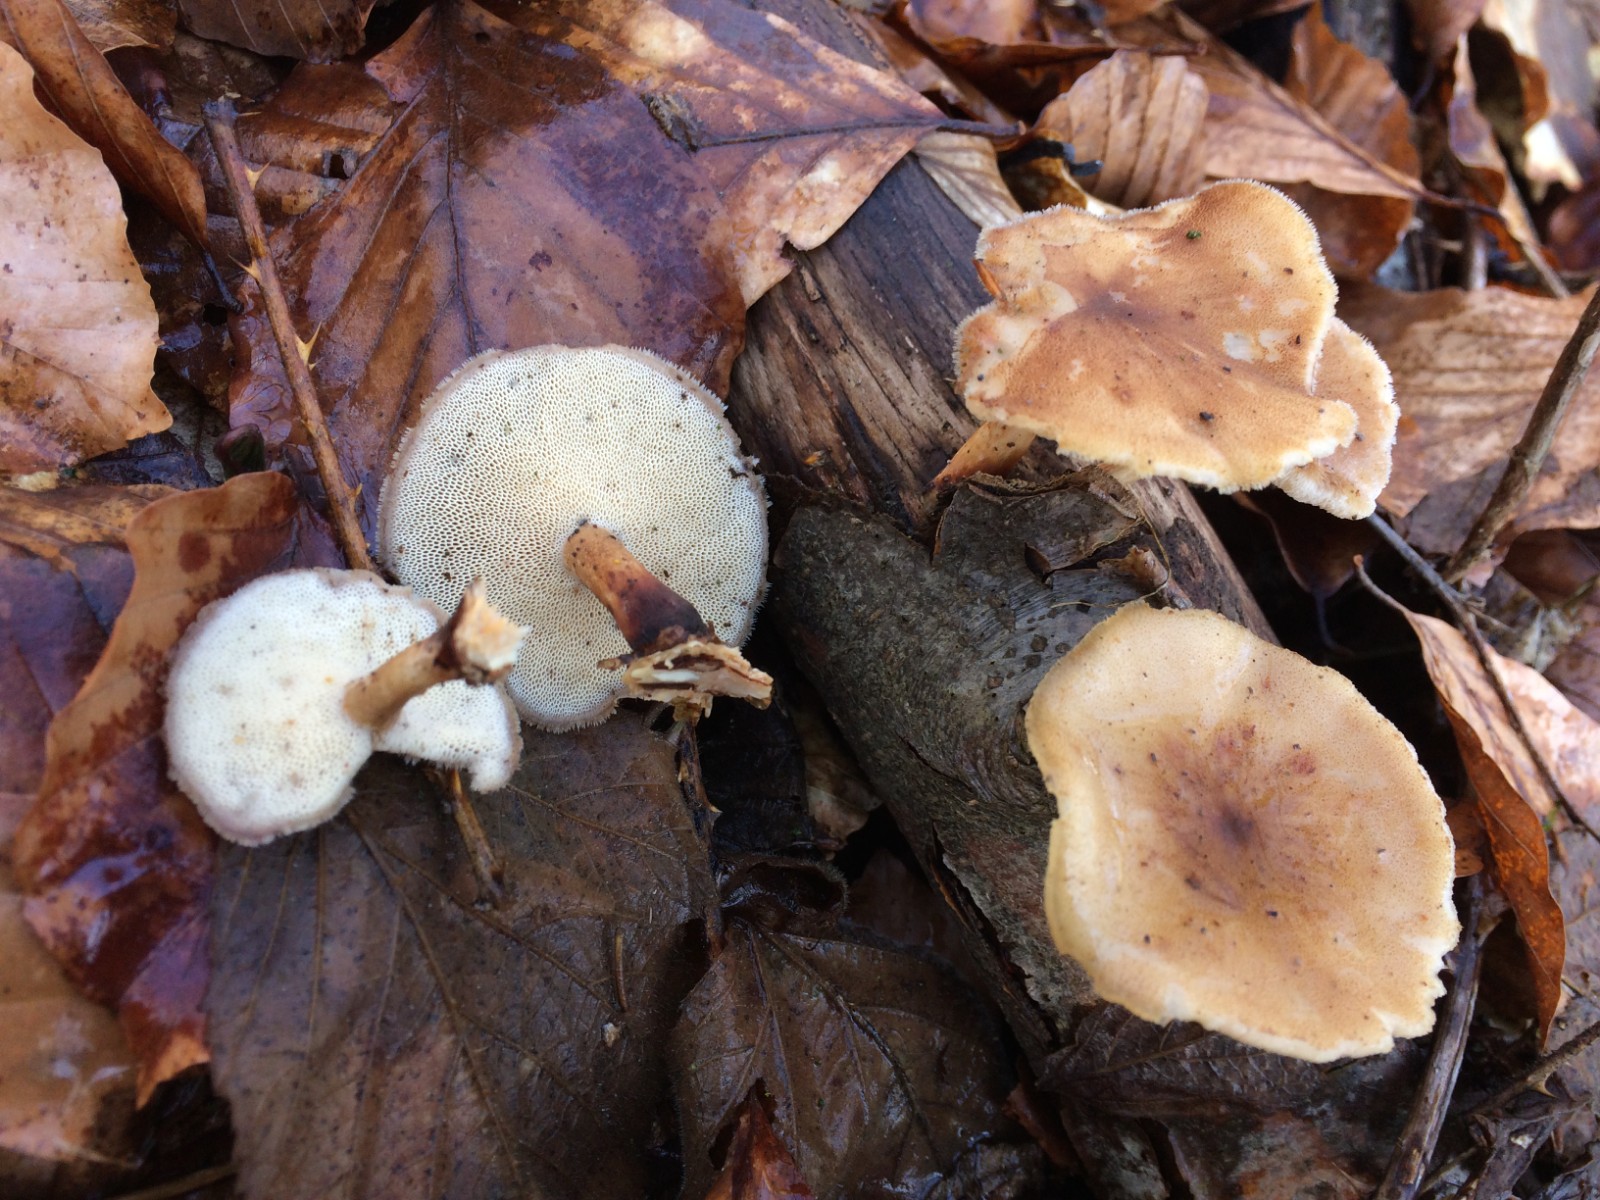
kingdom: Fungi
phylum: Basidiomycota
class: Agaricomycetes
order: Polyporales
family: Polyporaceae
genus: Lentinus
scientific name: Lentinus brumalis
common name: vinter-stilkporesvamp
